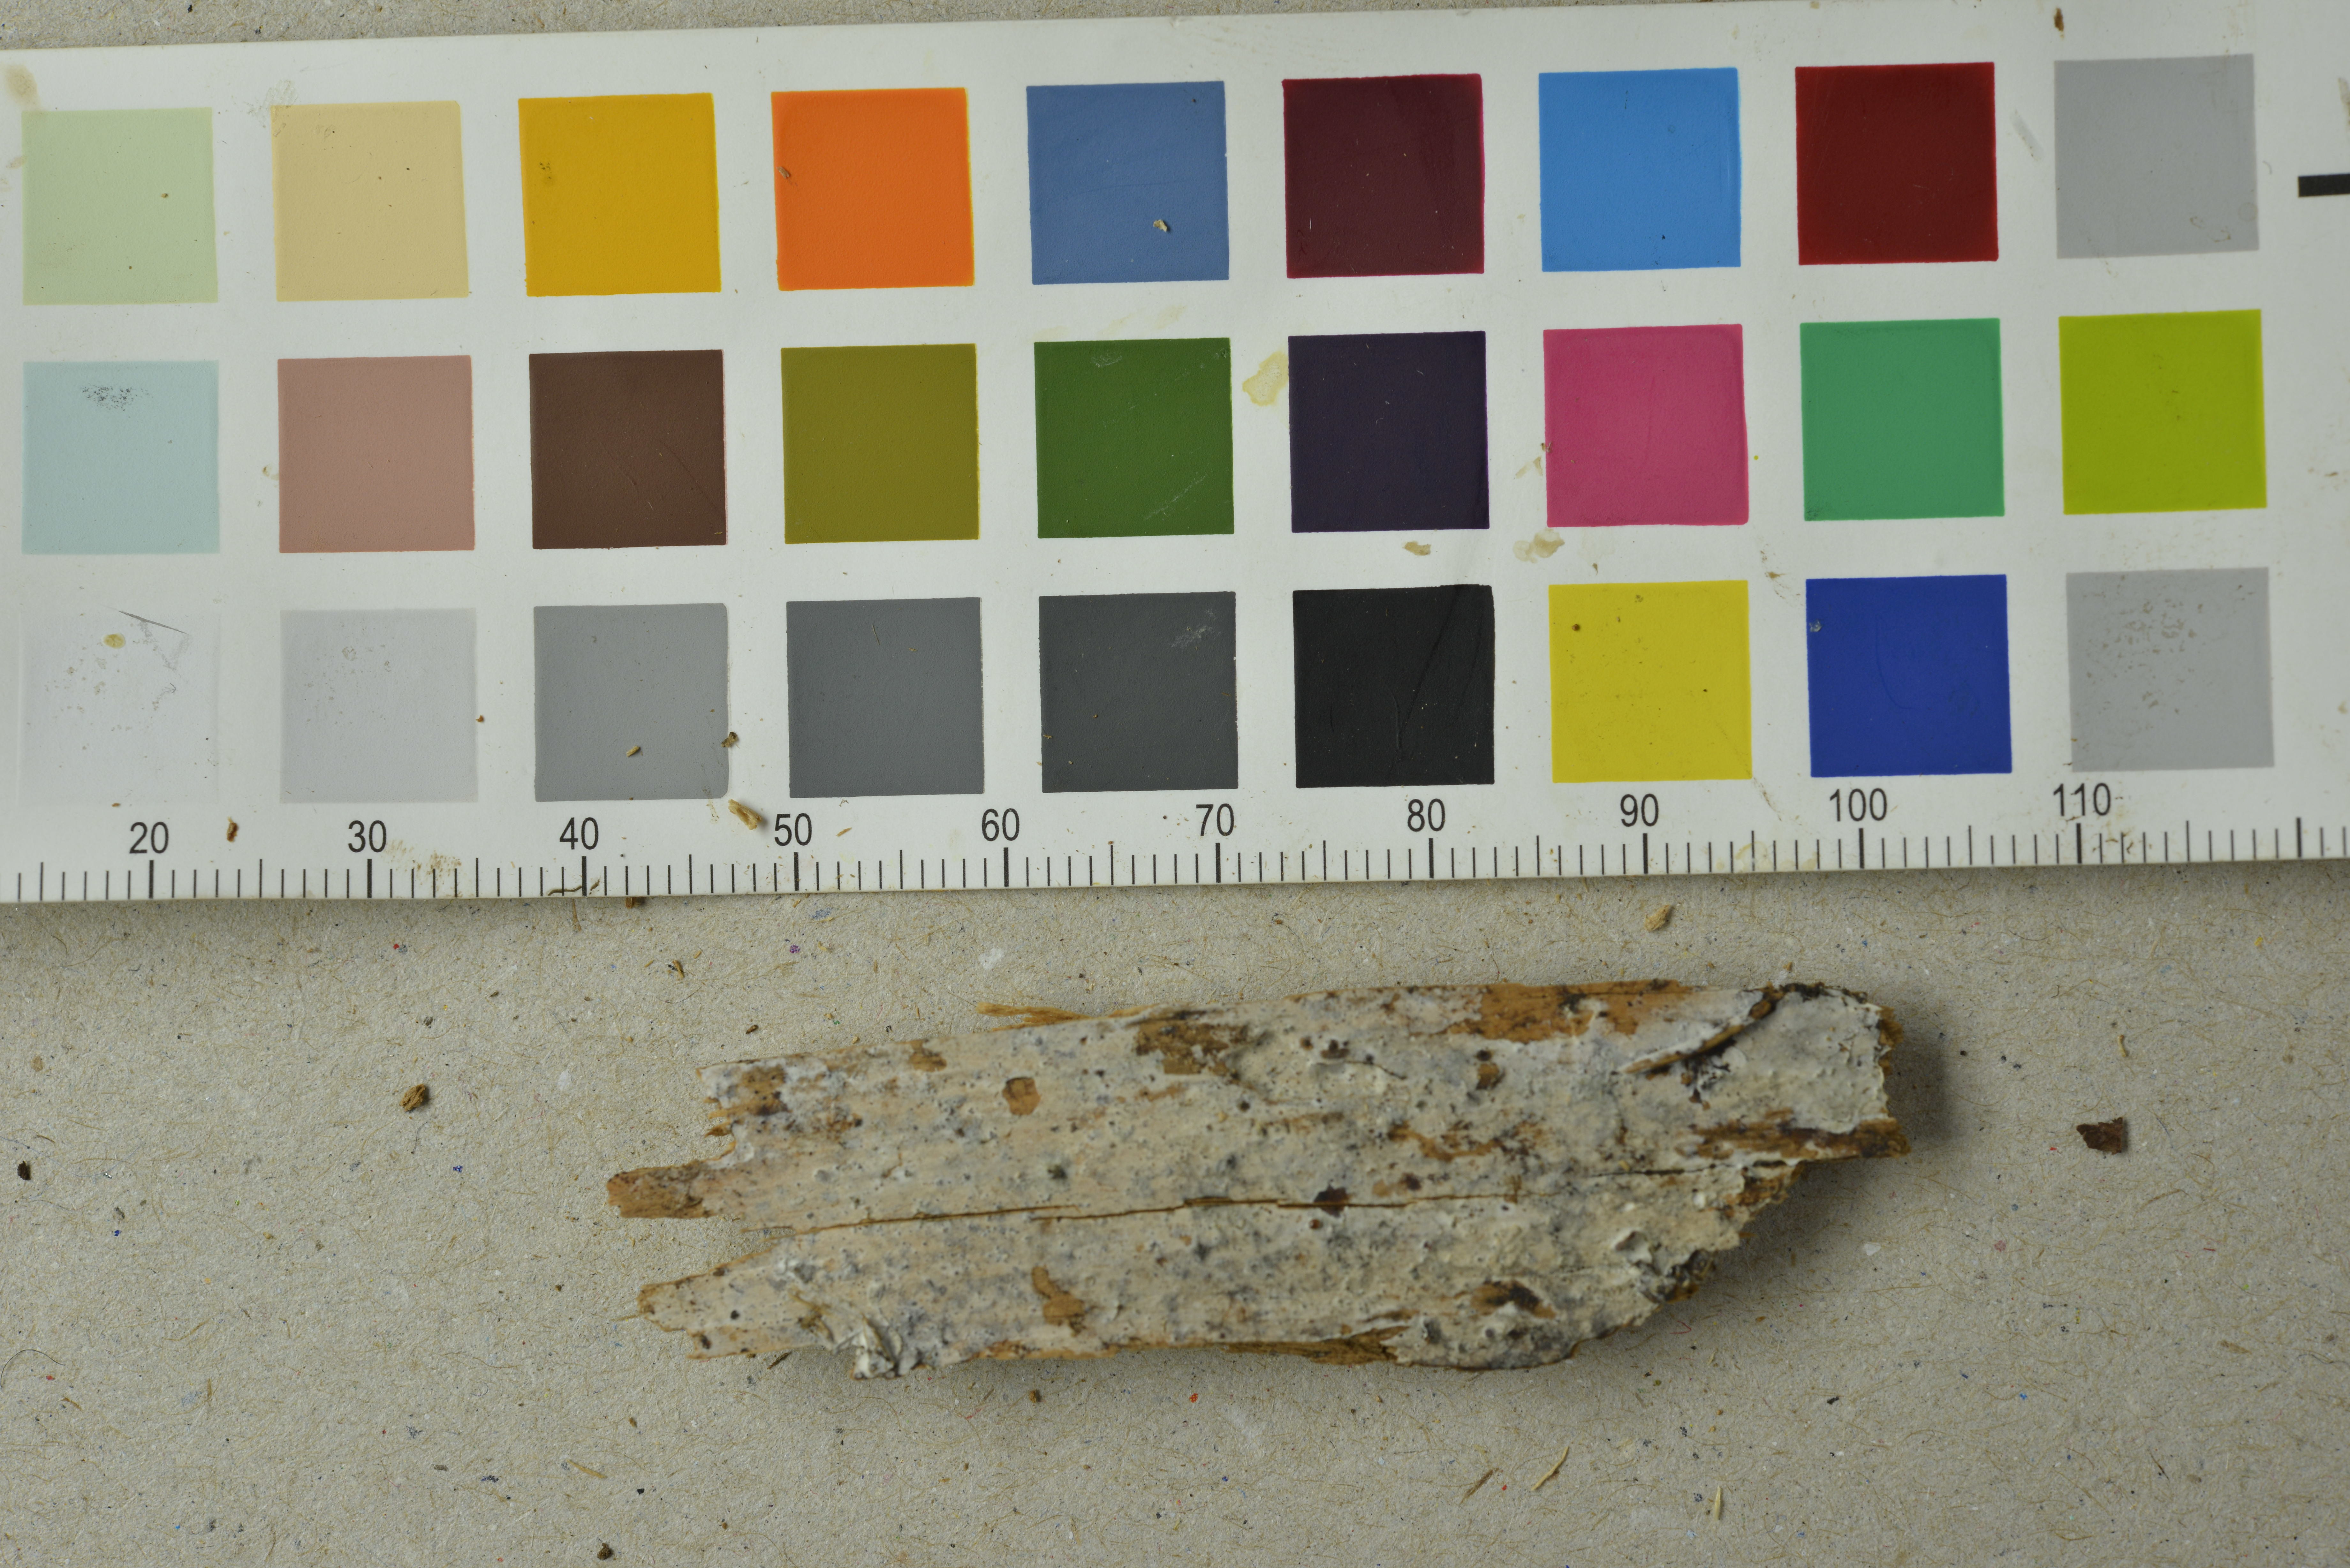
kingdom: Fungi
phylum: Basidiomycota
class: Agaricomycetes
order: Polyporales
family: Steccherinaceae
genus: Cabalodontia
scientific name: Cabalodontia subcretacea
